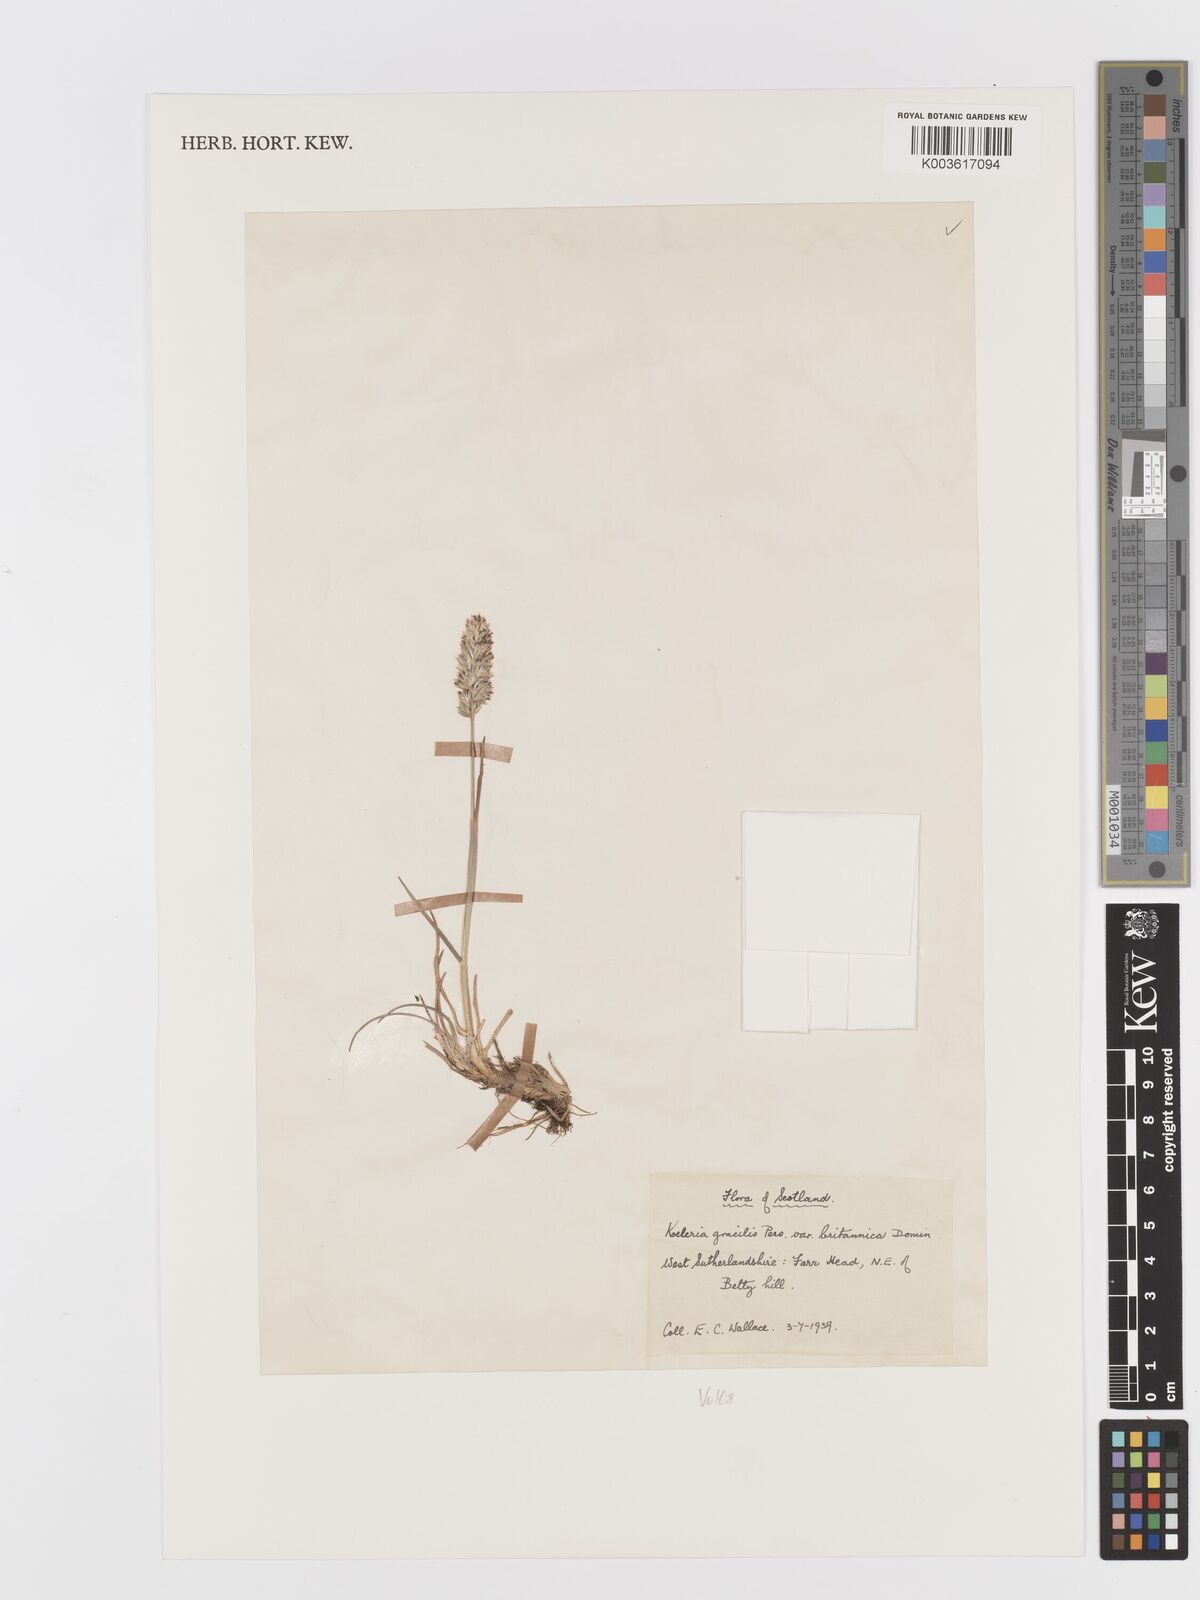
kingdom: Plantae
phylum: Tracheophyta
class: Liliopsida
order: Poales
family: Poaceae
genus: Koeleria
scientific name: Koeleria macrantha
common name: Crested hair-grass
